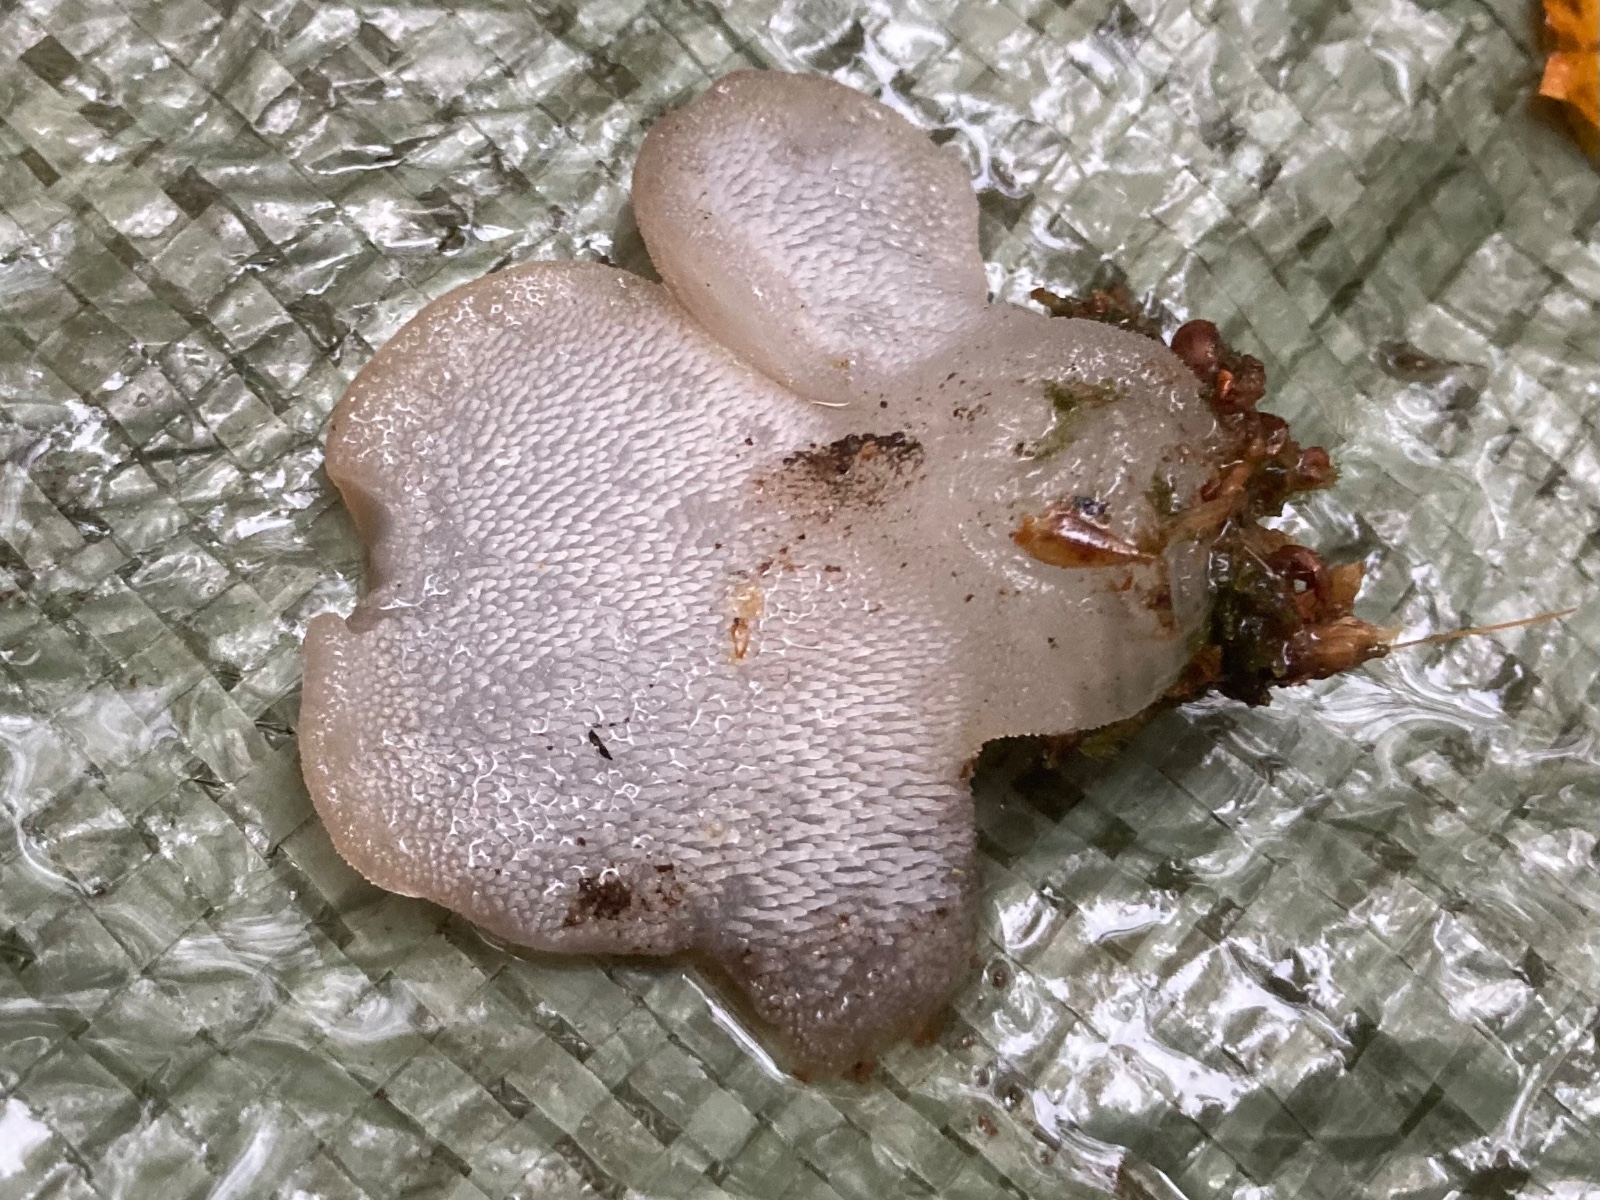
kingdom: Fungi
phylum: Basidiomycota
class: Agaricomycetes
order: Auriculariales
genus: Pseudohydnum
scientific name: Pseudohydnum gelatinosum
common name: bævretand
